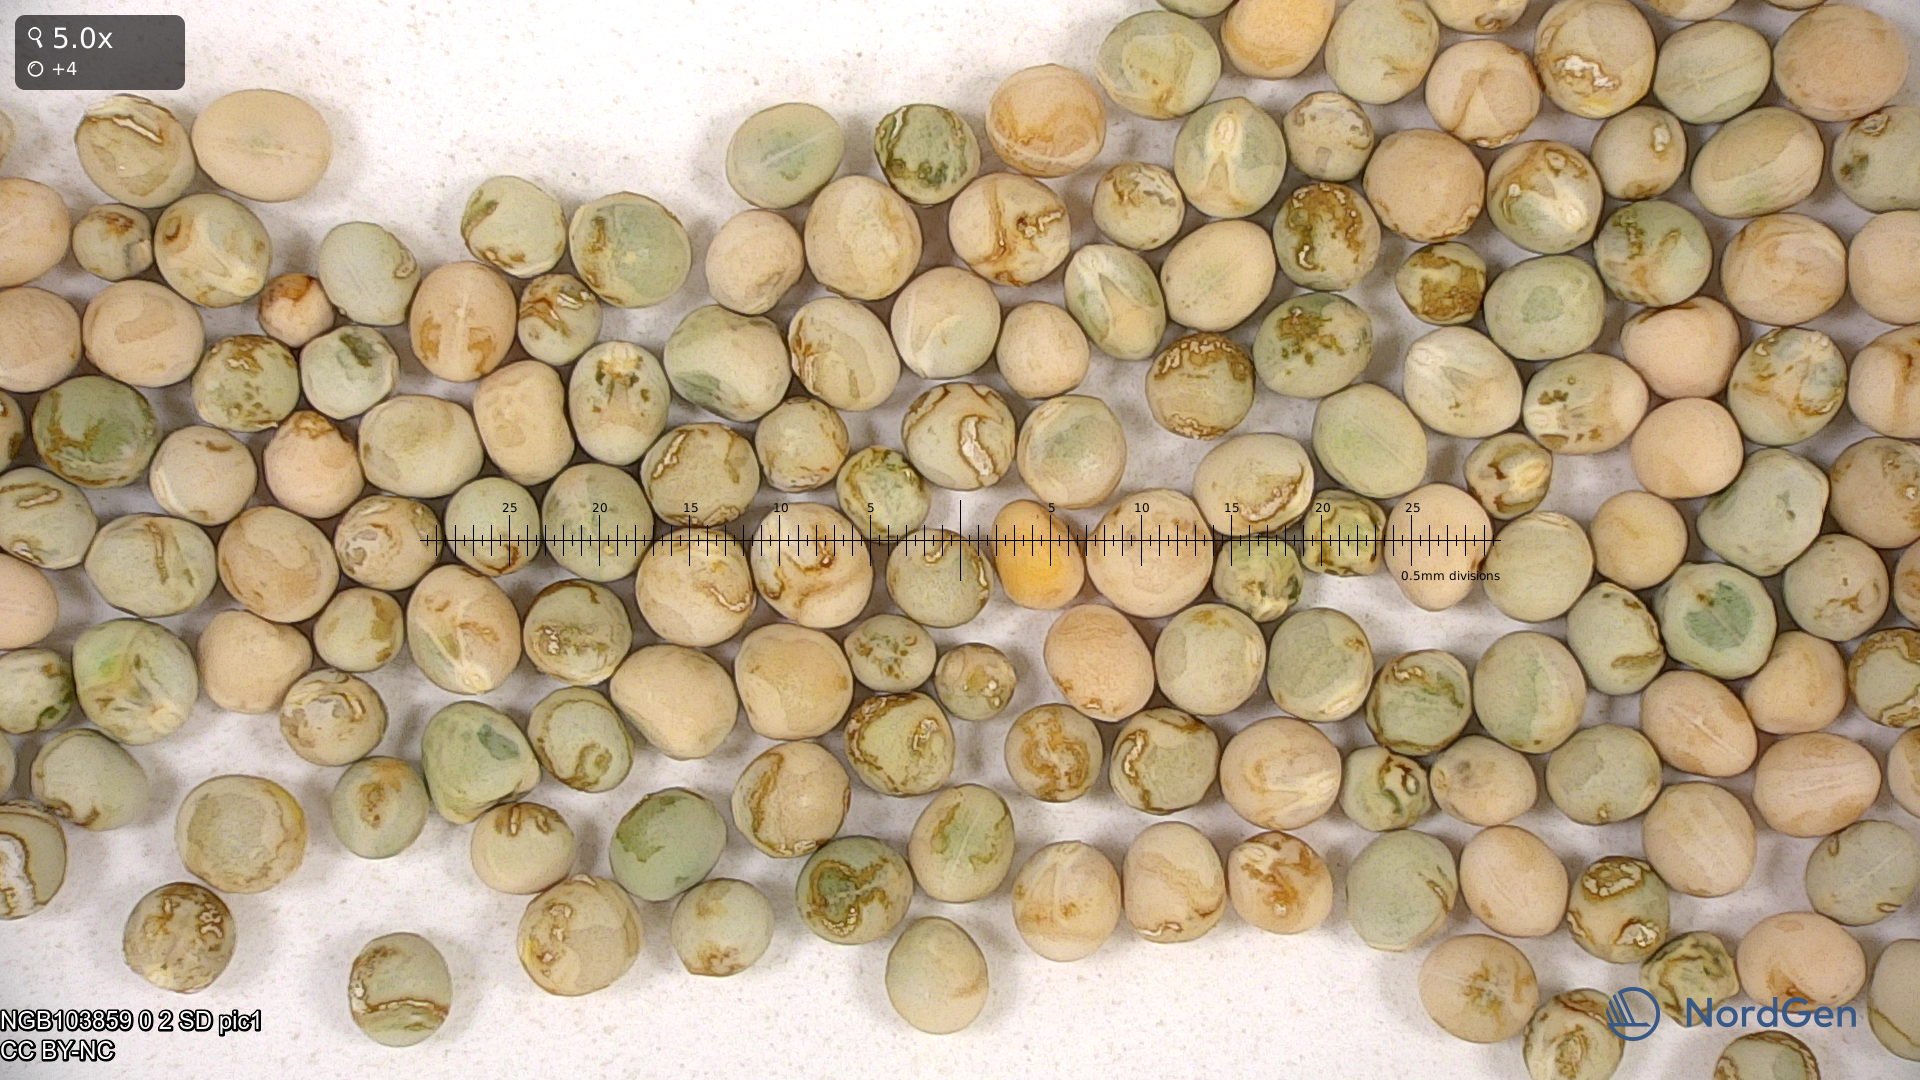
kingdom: Plantae
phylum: Tracheophyta
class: Magnoliopsida
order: Fabales
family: Fabaceae
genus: Lathyrus
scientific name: Lathyrus oleraceus
